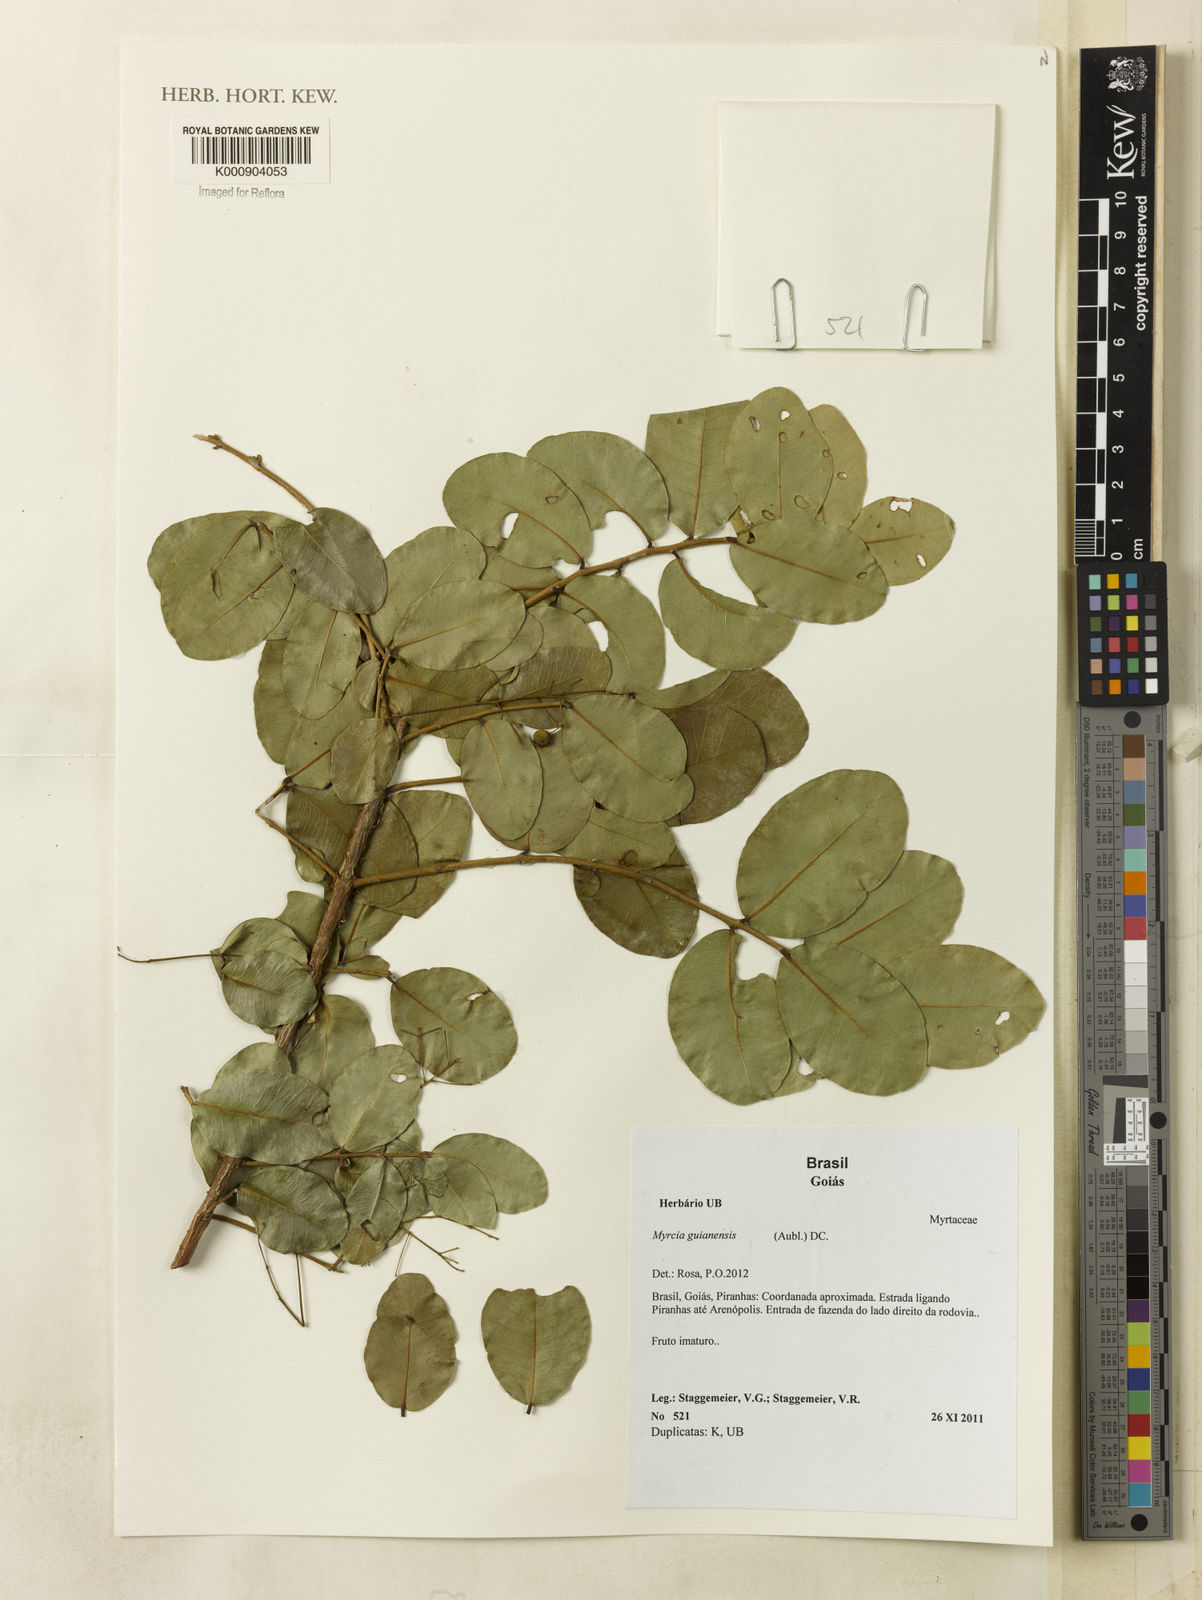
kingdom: Plantae
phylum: Tracheophyta
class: Magnoliopsida
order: Myrtales
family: Myrtaceae
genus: Myrcia
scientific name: Myrcia guianensis
